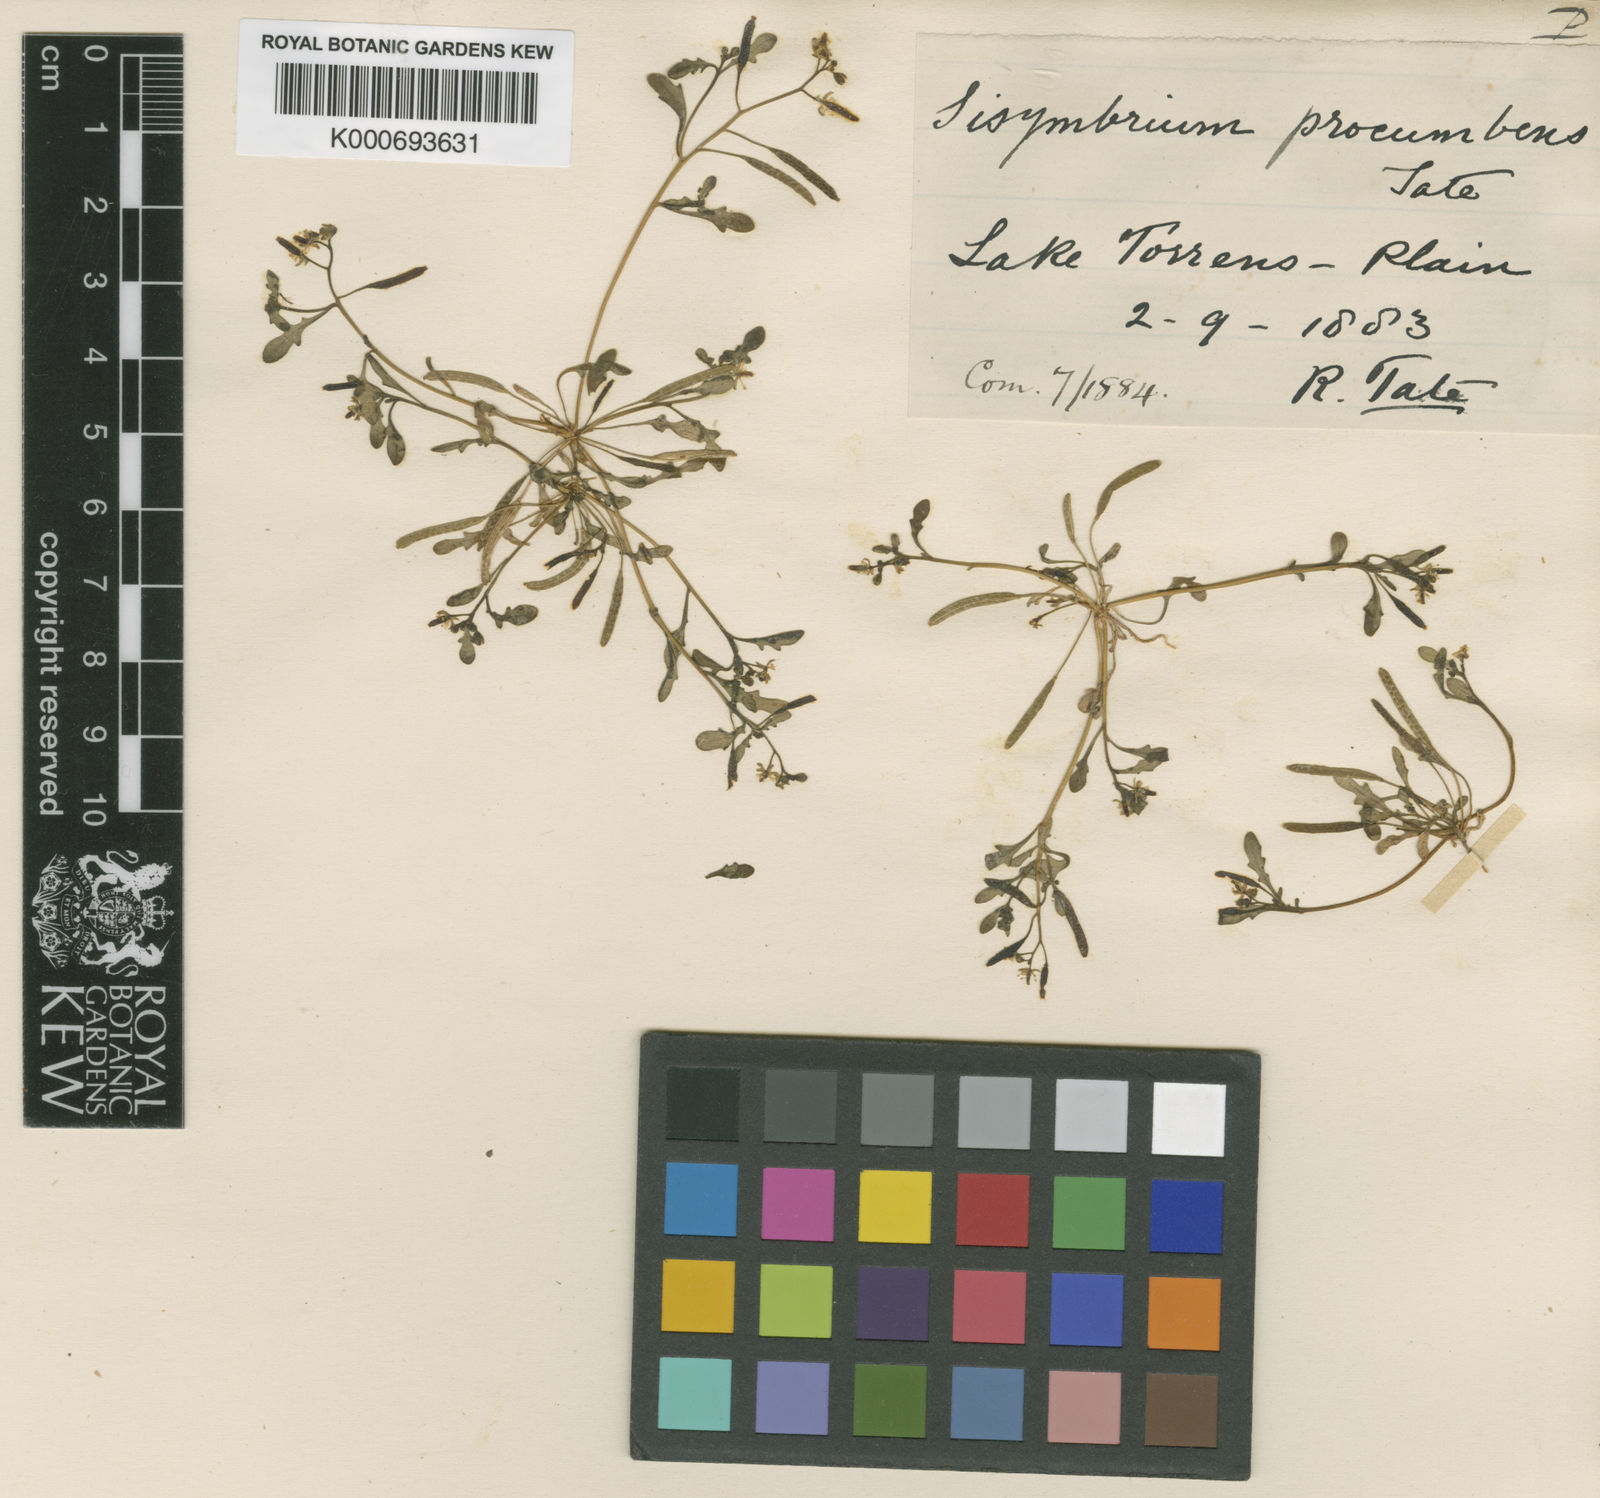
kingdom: Plantae
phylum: Tracheophyta
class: Magnoliopsida
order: Brassicales
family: Brassicaceae
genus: Drabastrum
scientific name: Drabastrum alpestre
